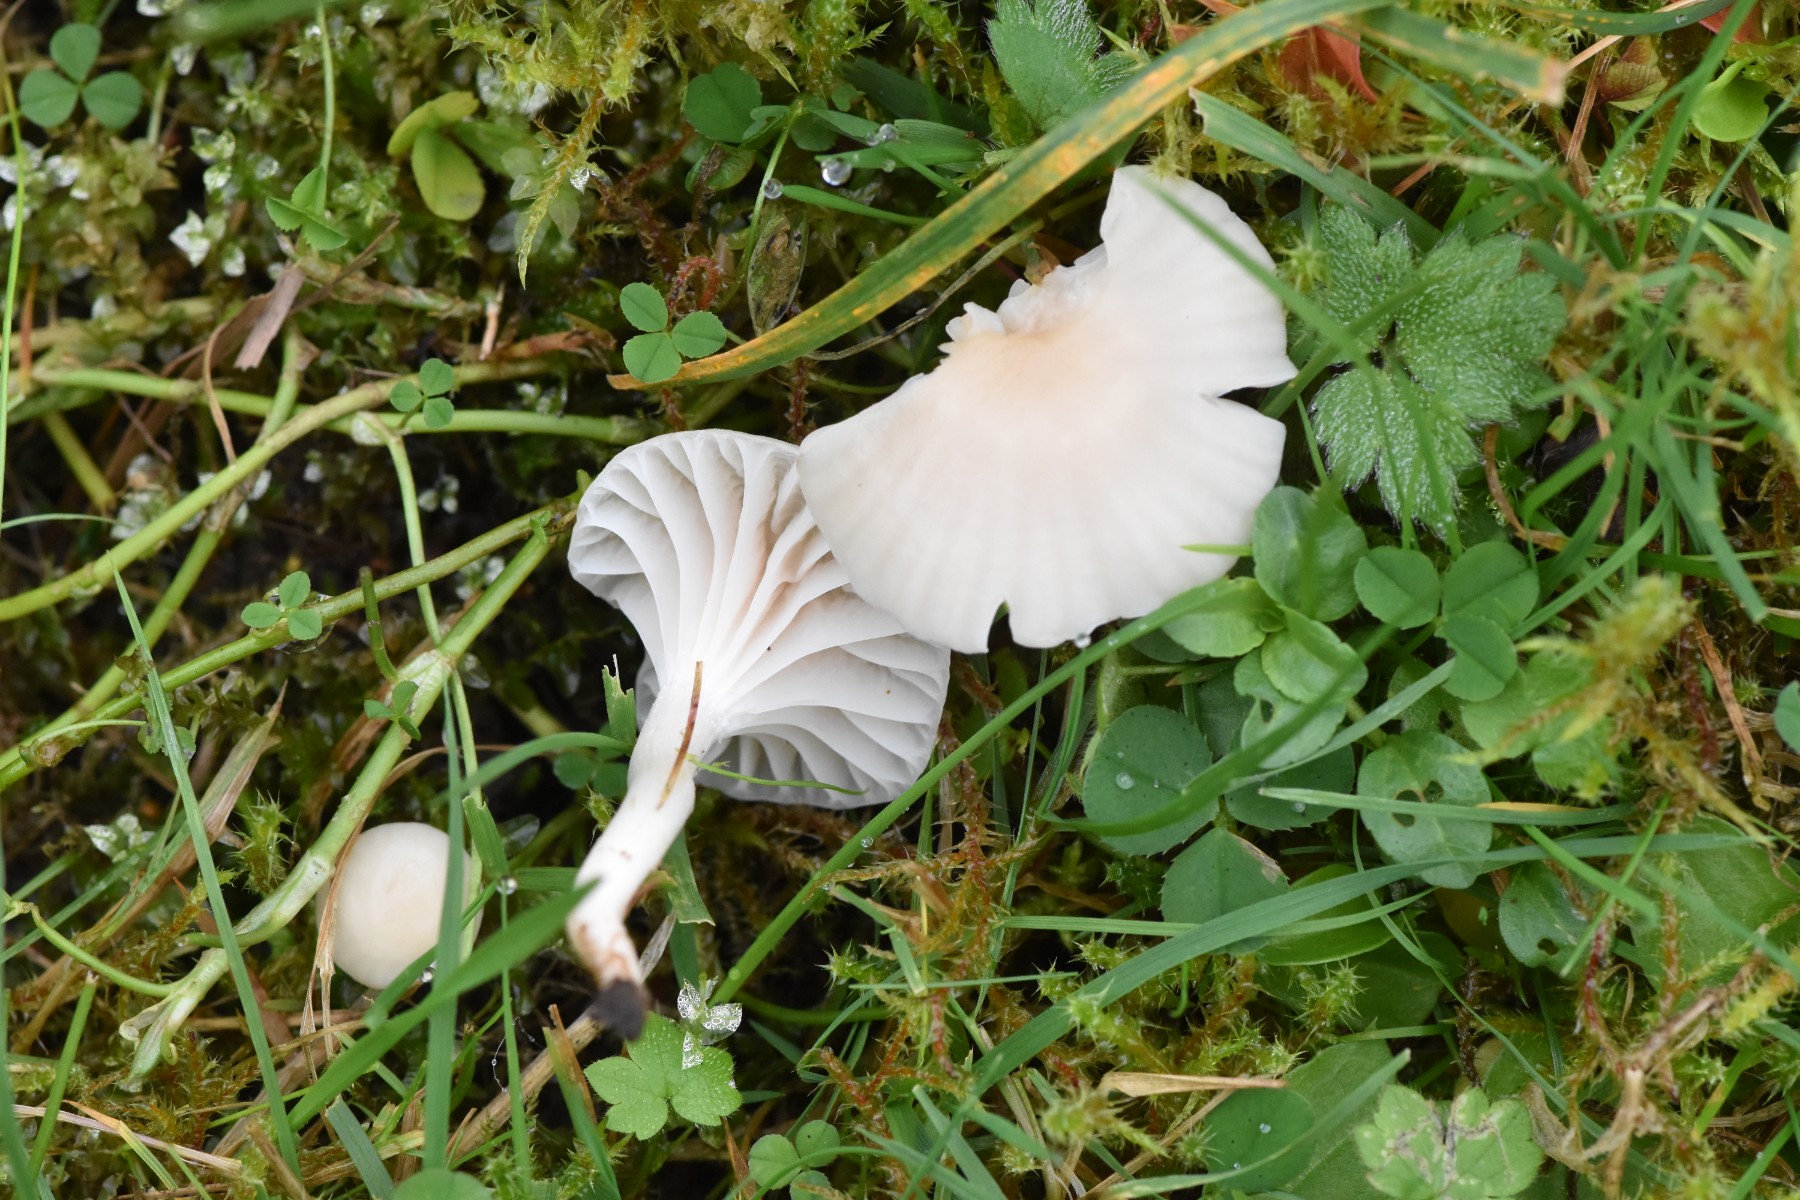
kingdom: Fungi
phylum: Basidiomycota
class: Agaricomycetes
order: Agaricales
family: Hygrophoraceae
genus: Cuphophyllus
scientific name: Cuphophyllus
